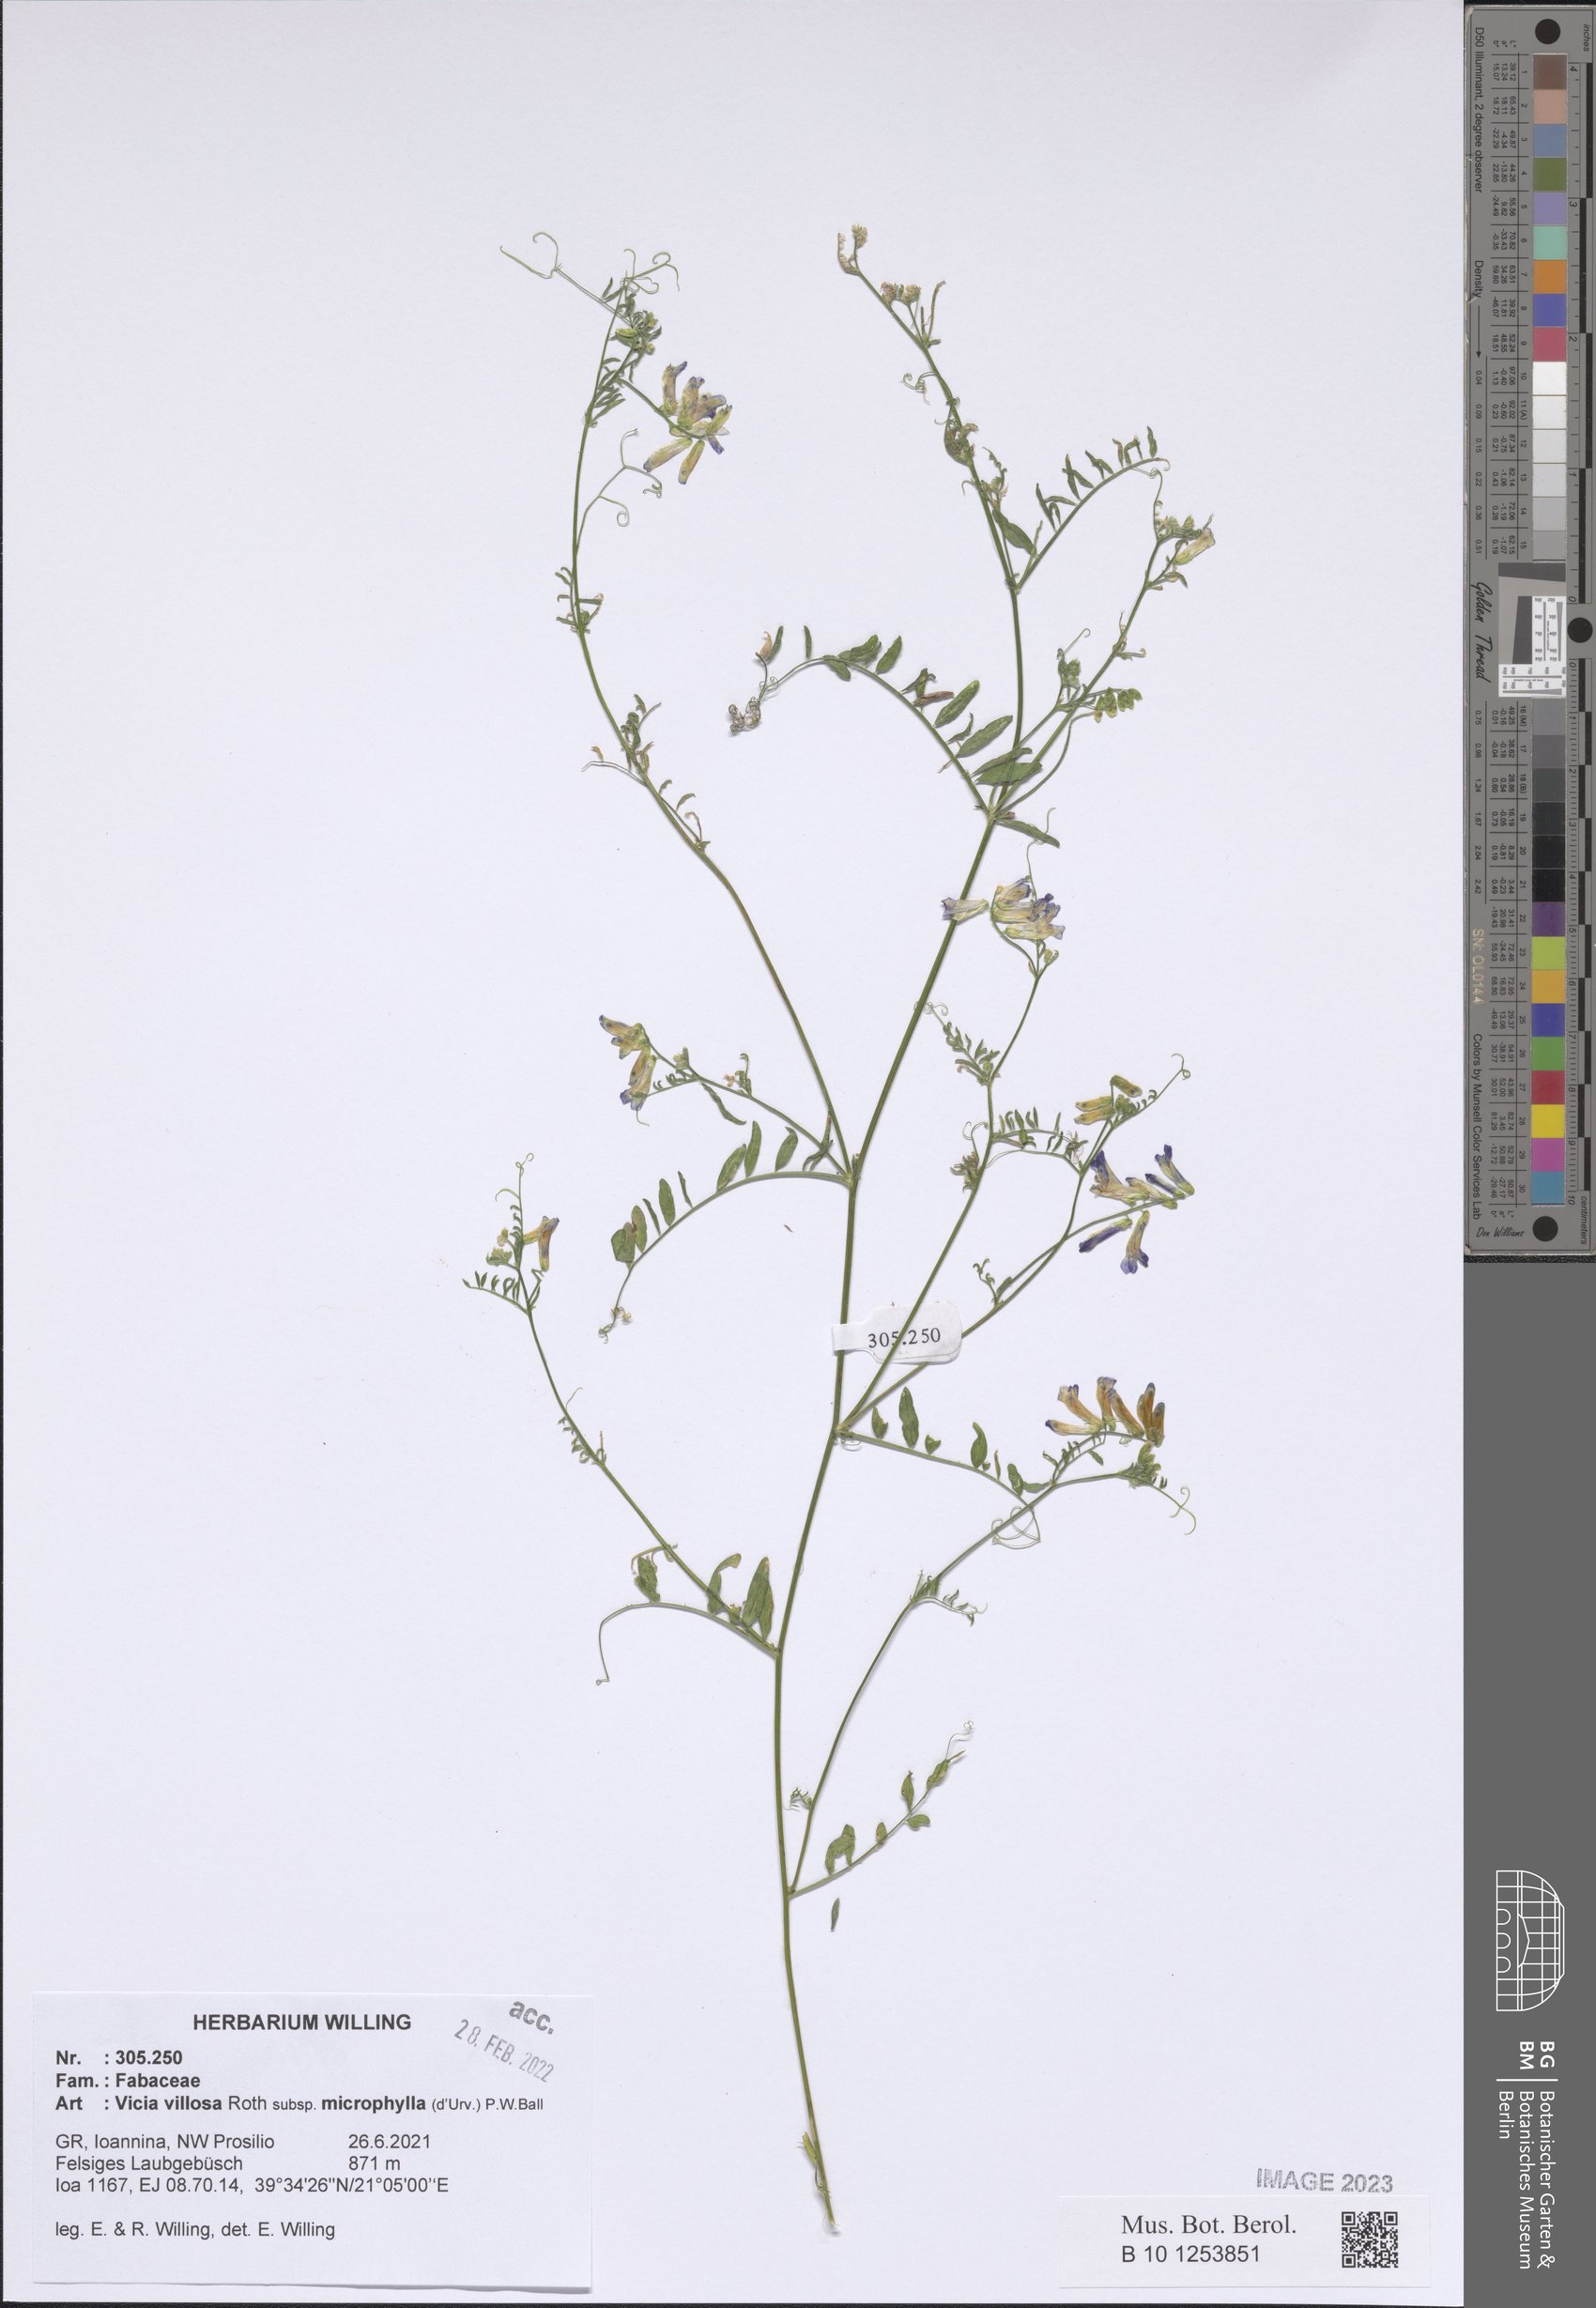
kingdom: Plantae
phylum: Tracheophyta
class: Magnoliopsida
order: Fabales
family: Fabaceae
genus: Vicia
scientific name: Vicia villosa
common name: Fodder vetch
